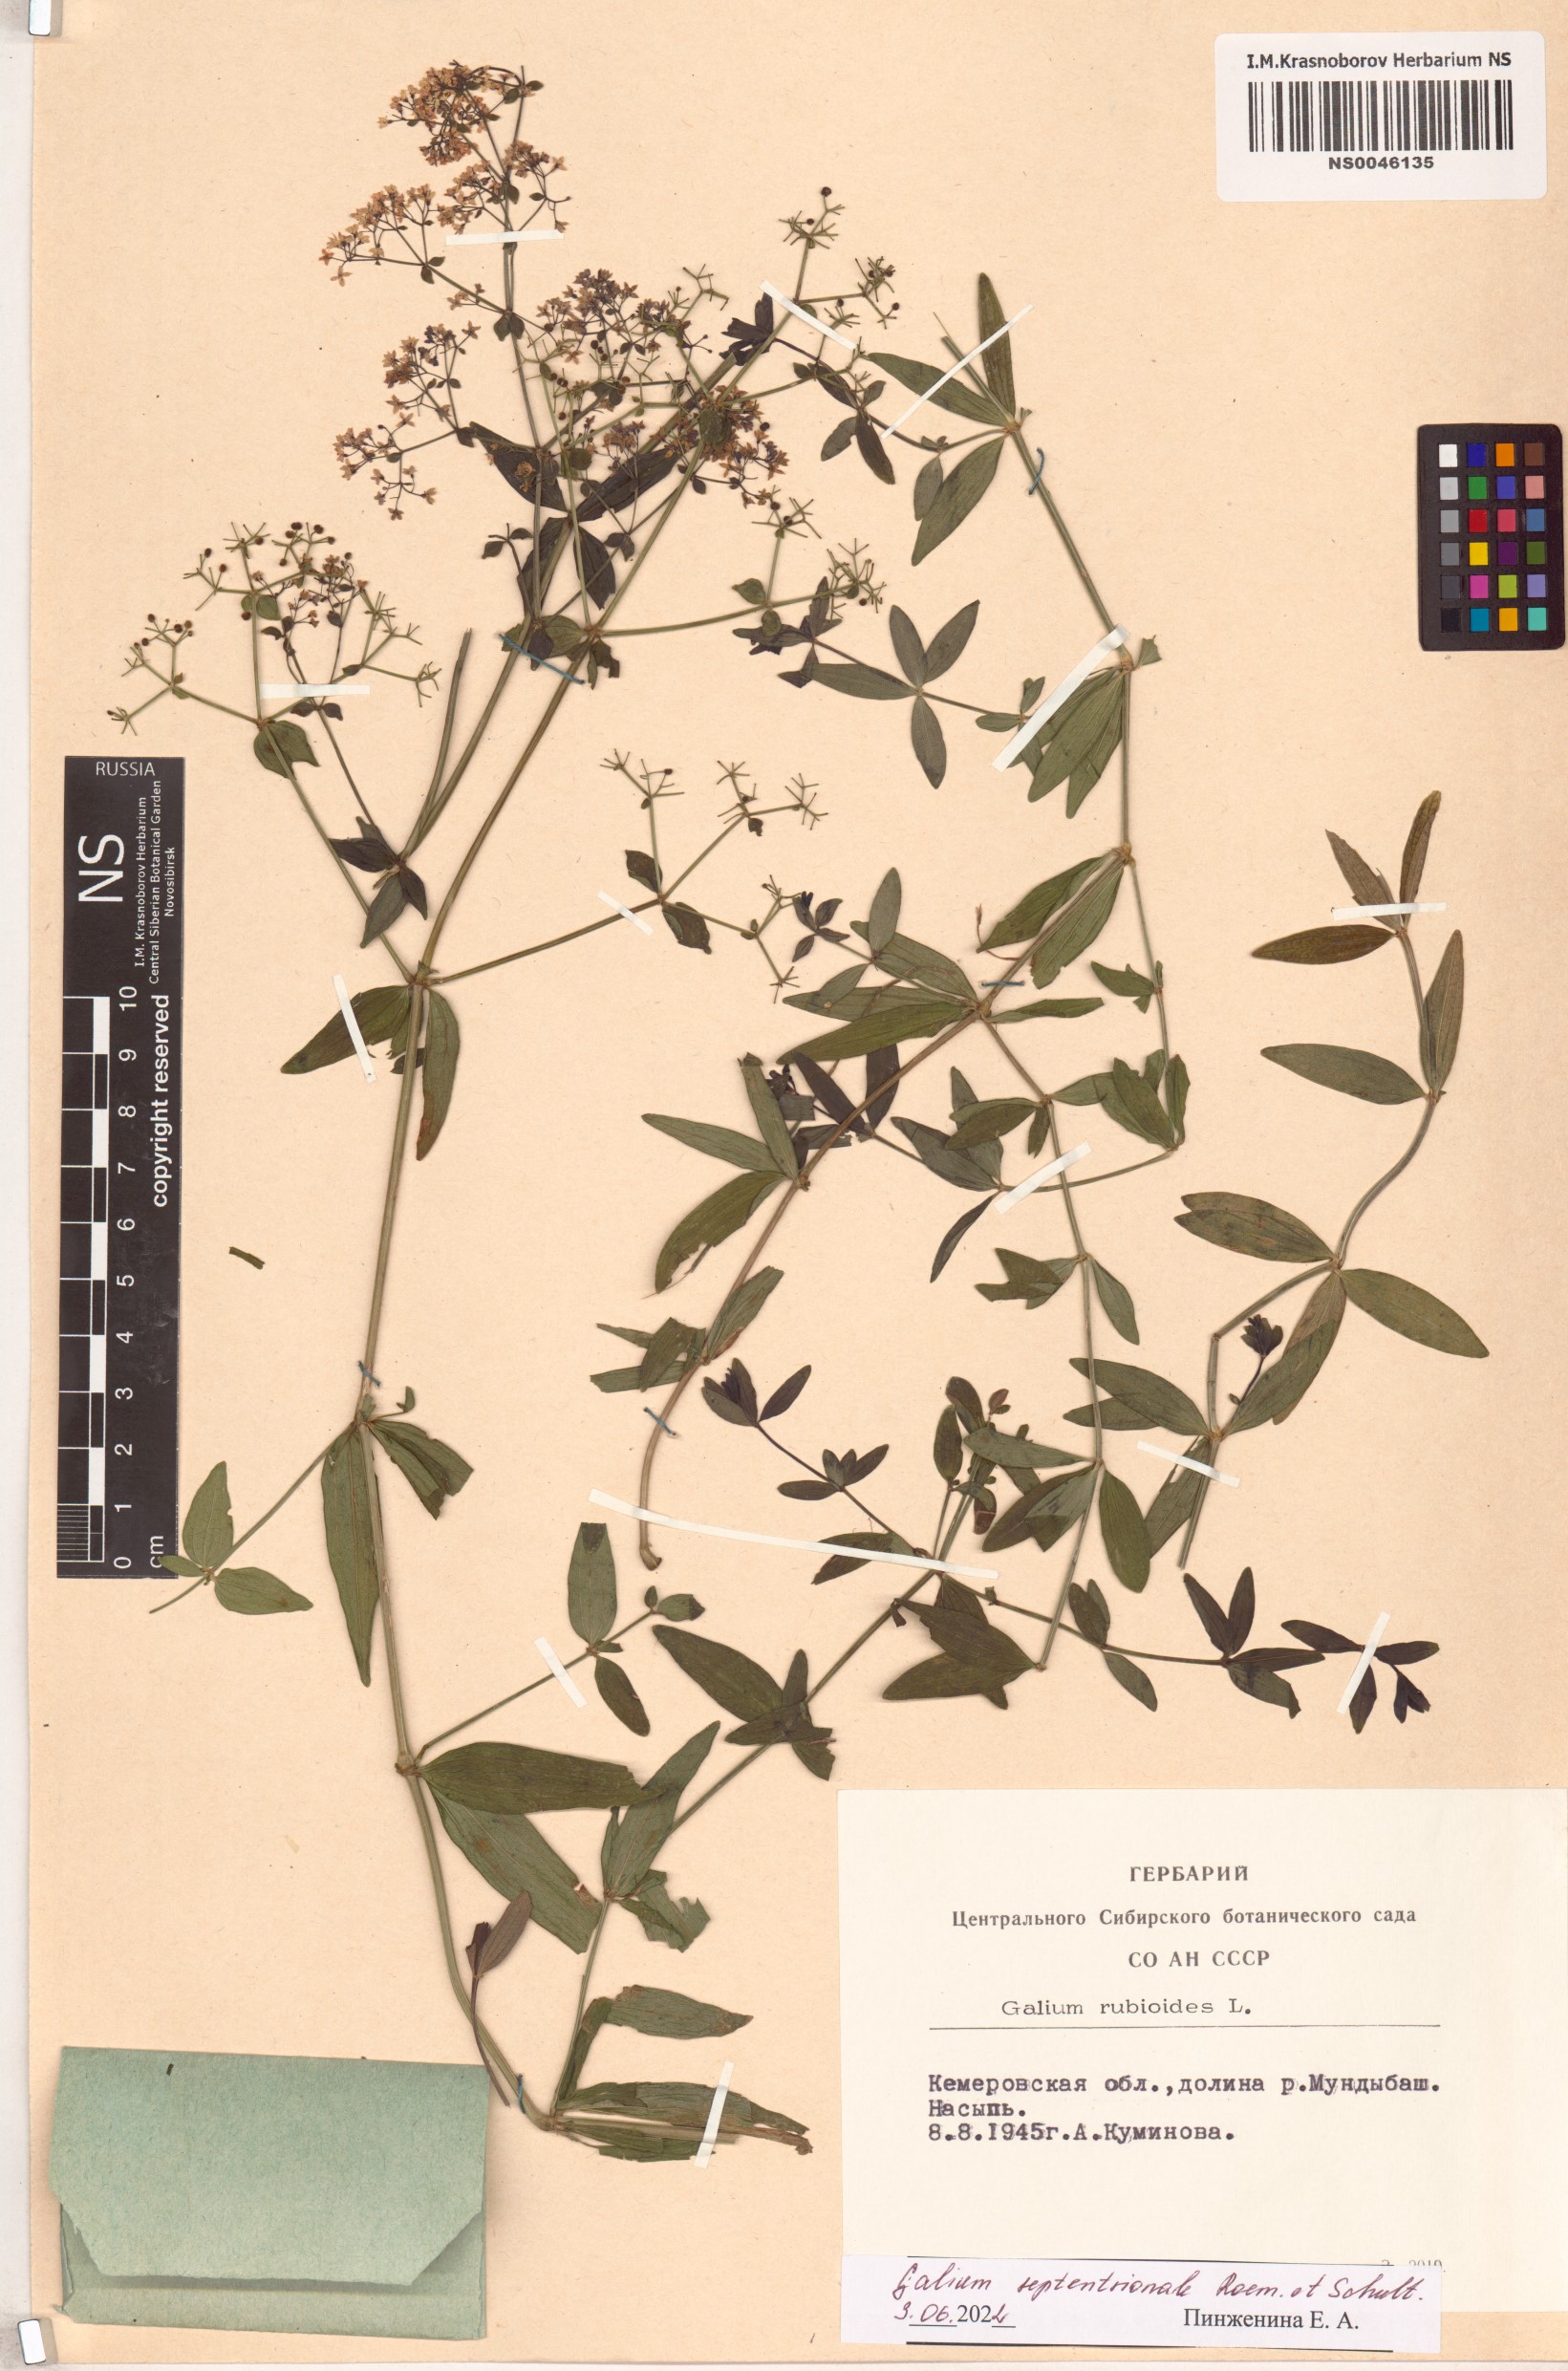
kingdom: Plantae
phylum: Tracheophyta
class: Magnoliopsida
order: Gentianales
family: Rubiaceae
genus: Galium
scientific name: Galium boreale
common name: Northern bedstraw
